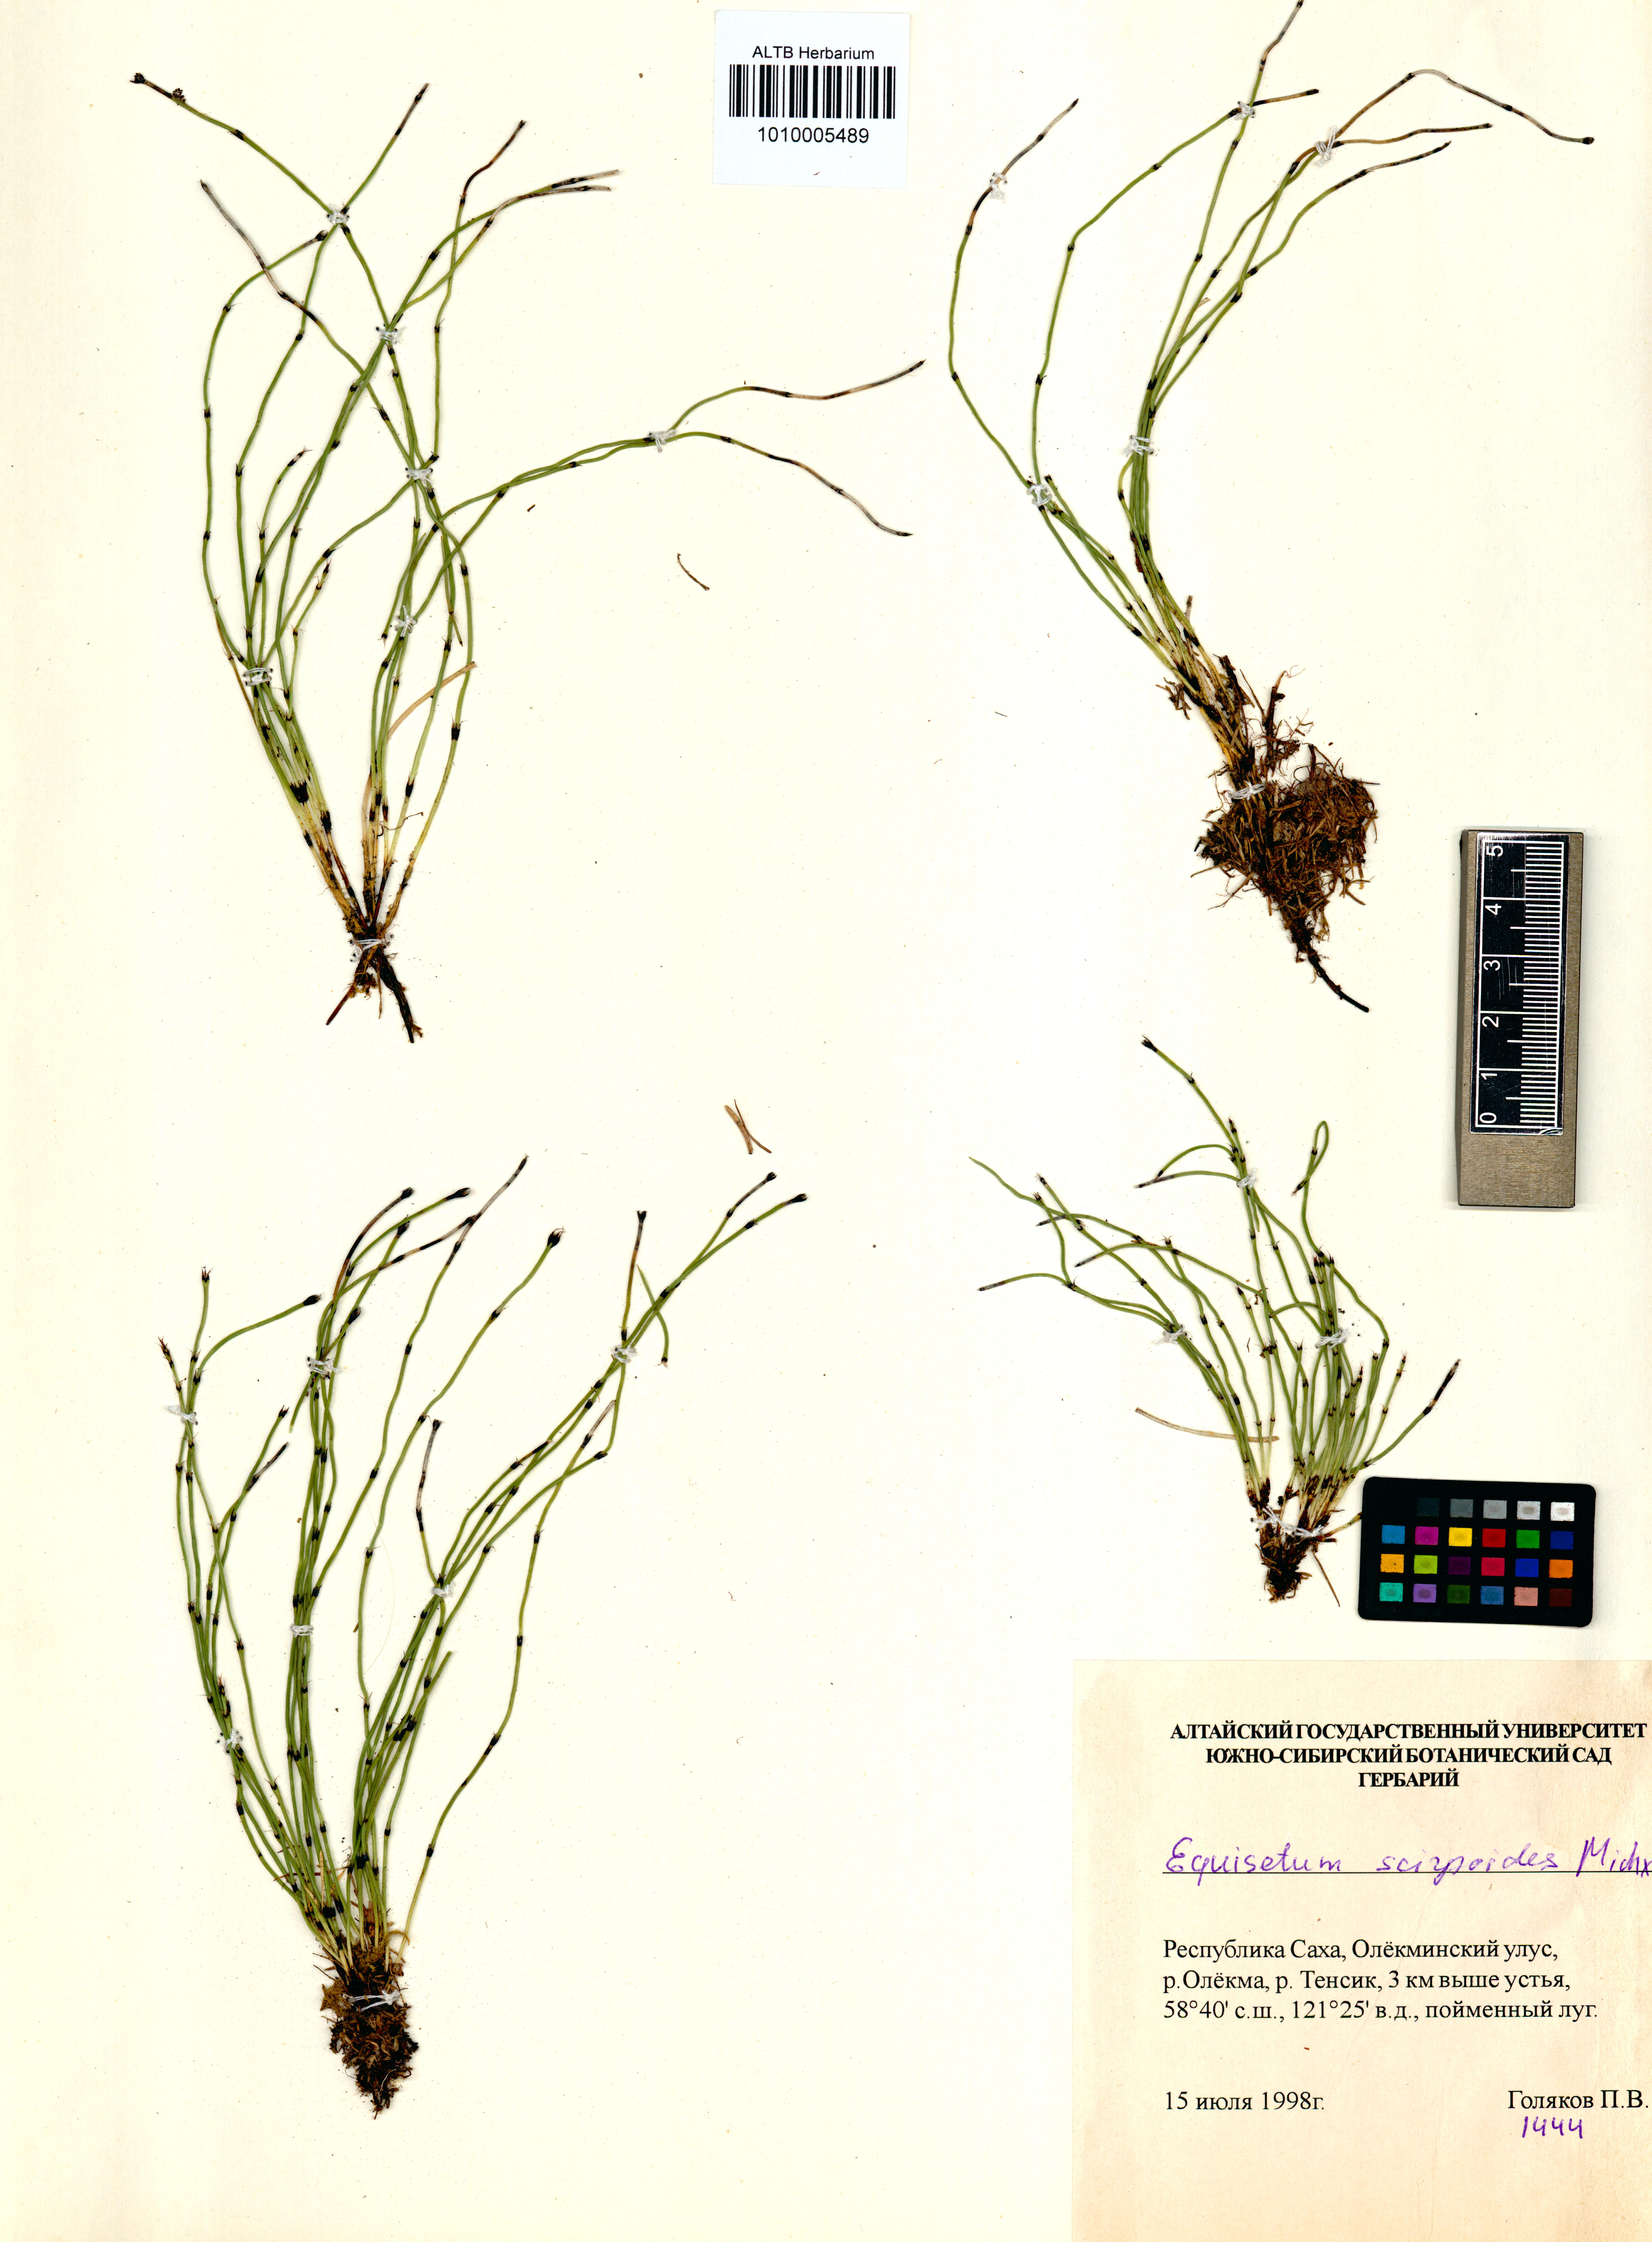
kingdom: Plantae
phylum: Tracheophyta
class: Polypodiopsida
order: Equisetales
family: Equisetaceae
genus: Equisetum
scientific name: Equisetum scirpoides
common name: Delicate horsetail
